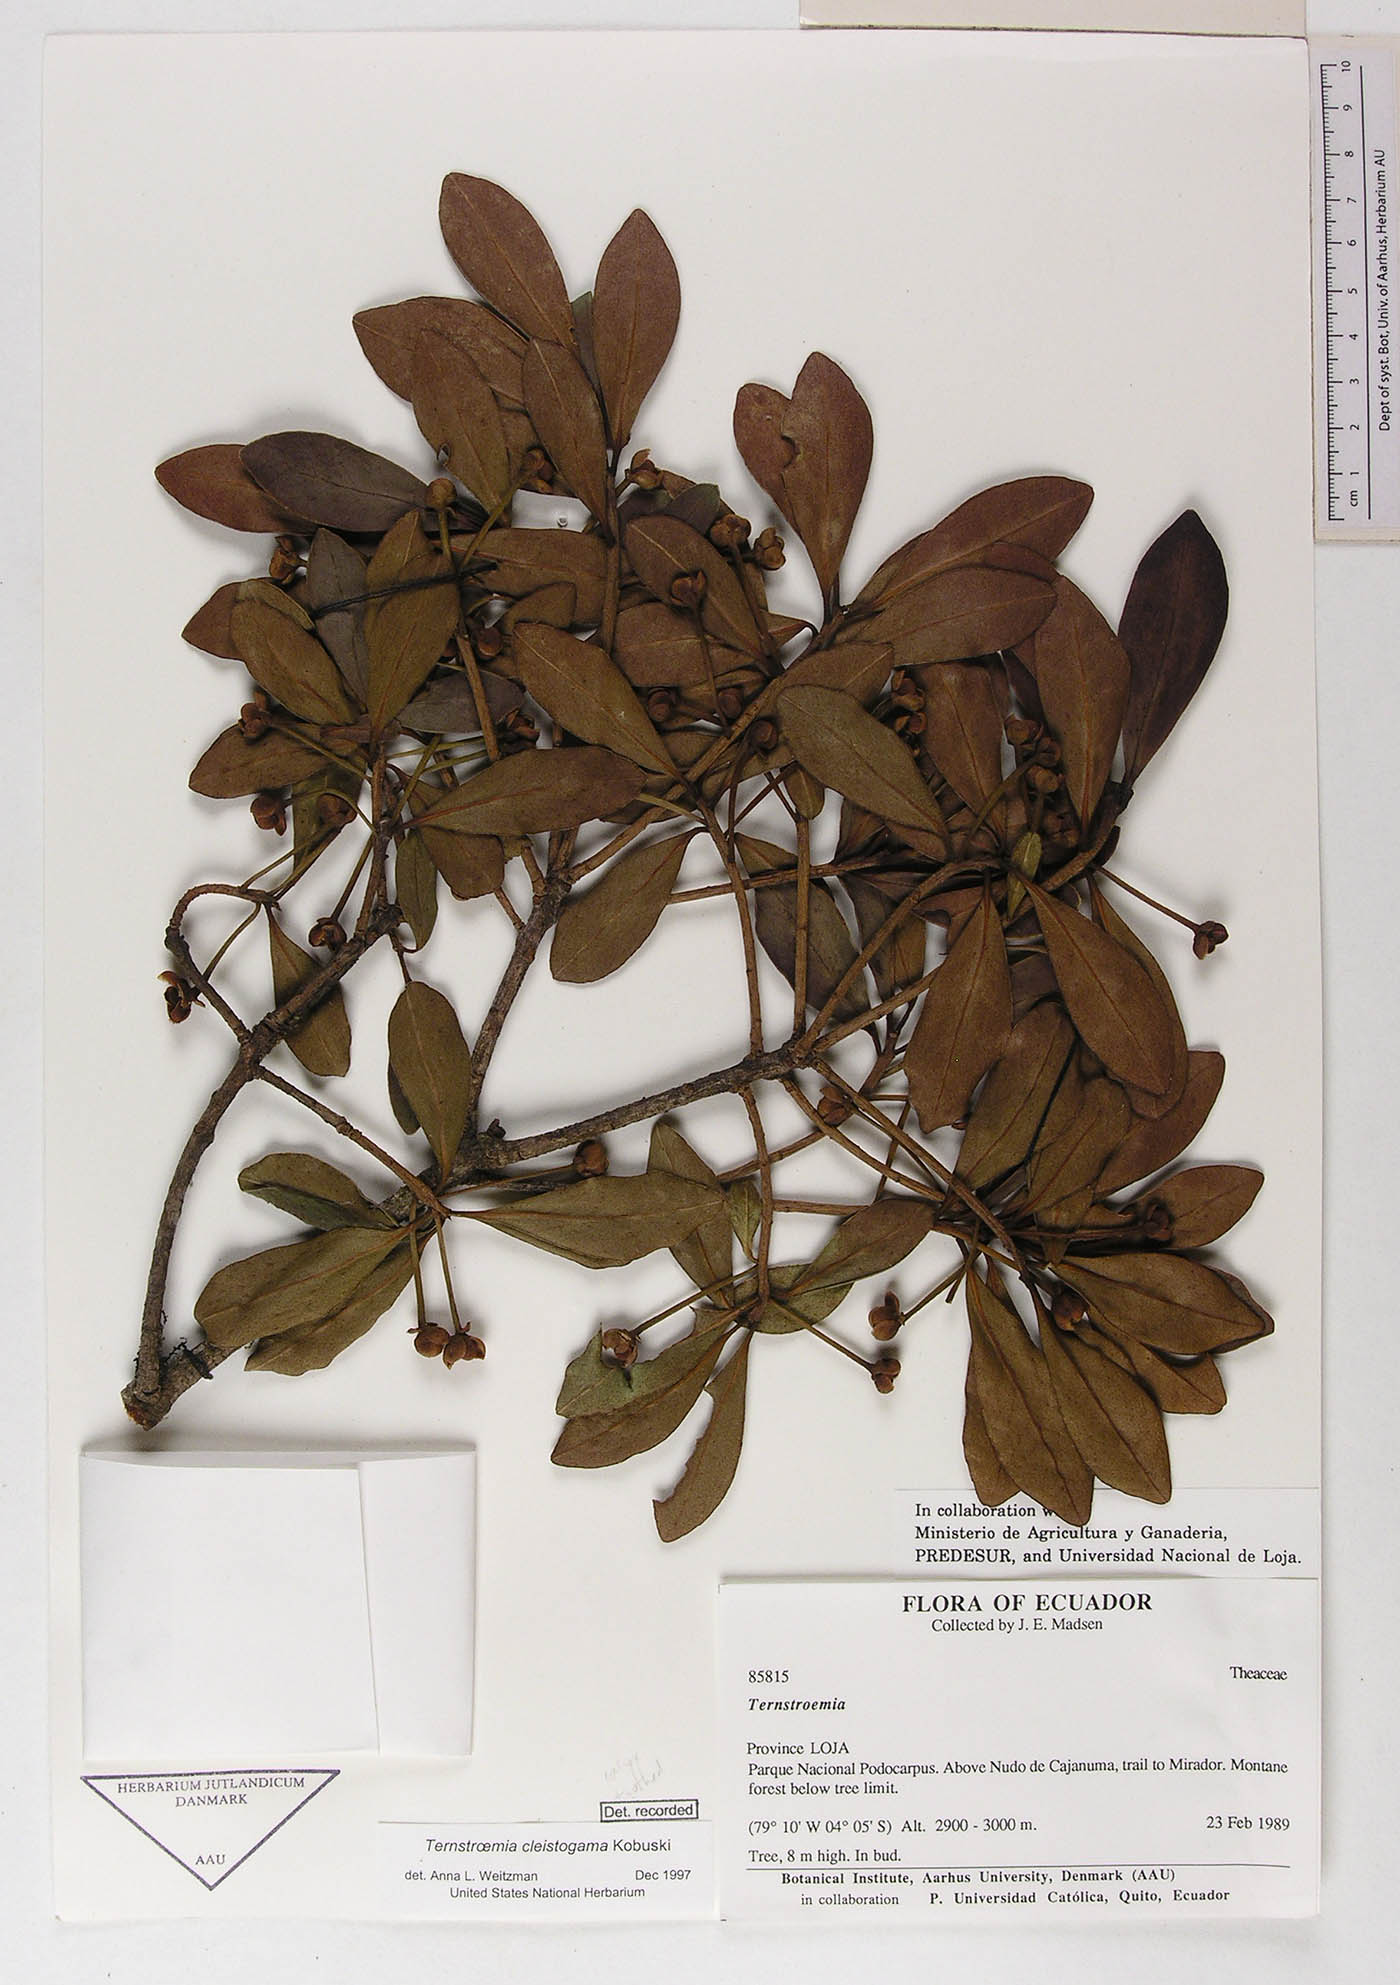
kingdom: Plantae
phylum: Tracheophyta
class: Magnoliopsida
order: Ericales
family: Pentaphylacaceae
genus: Ternstroemia
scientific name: Ternstroemia cleistogama
